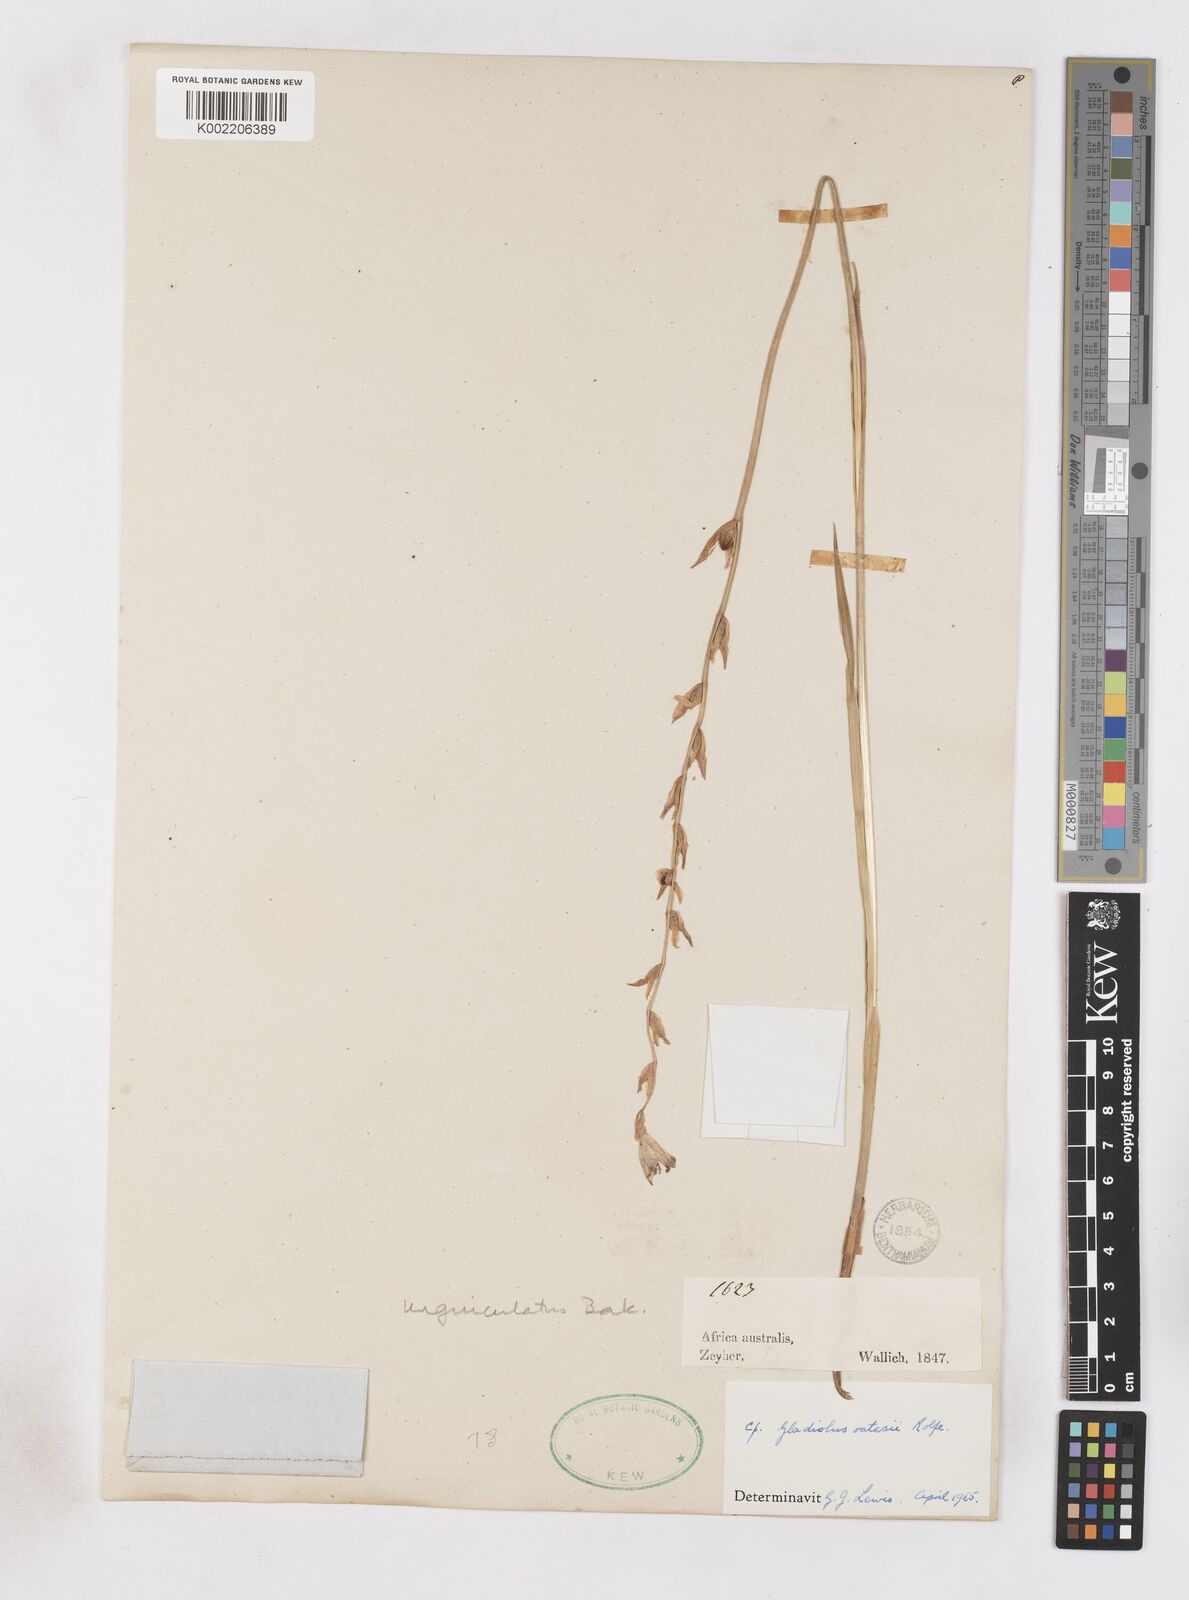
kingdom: Plantae
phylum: Tracheophyta
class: Liliopsida
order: Asparagales
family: Iridaceae
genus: Gladiolus
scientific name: Gladiolus unguiculatus
